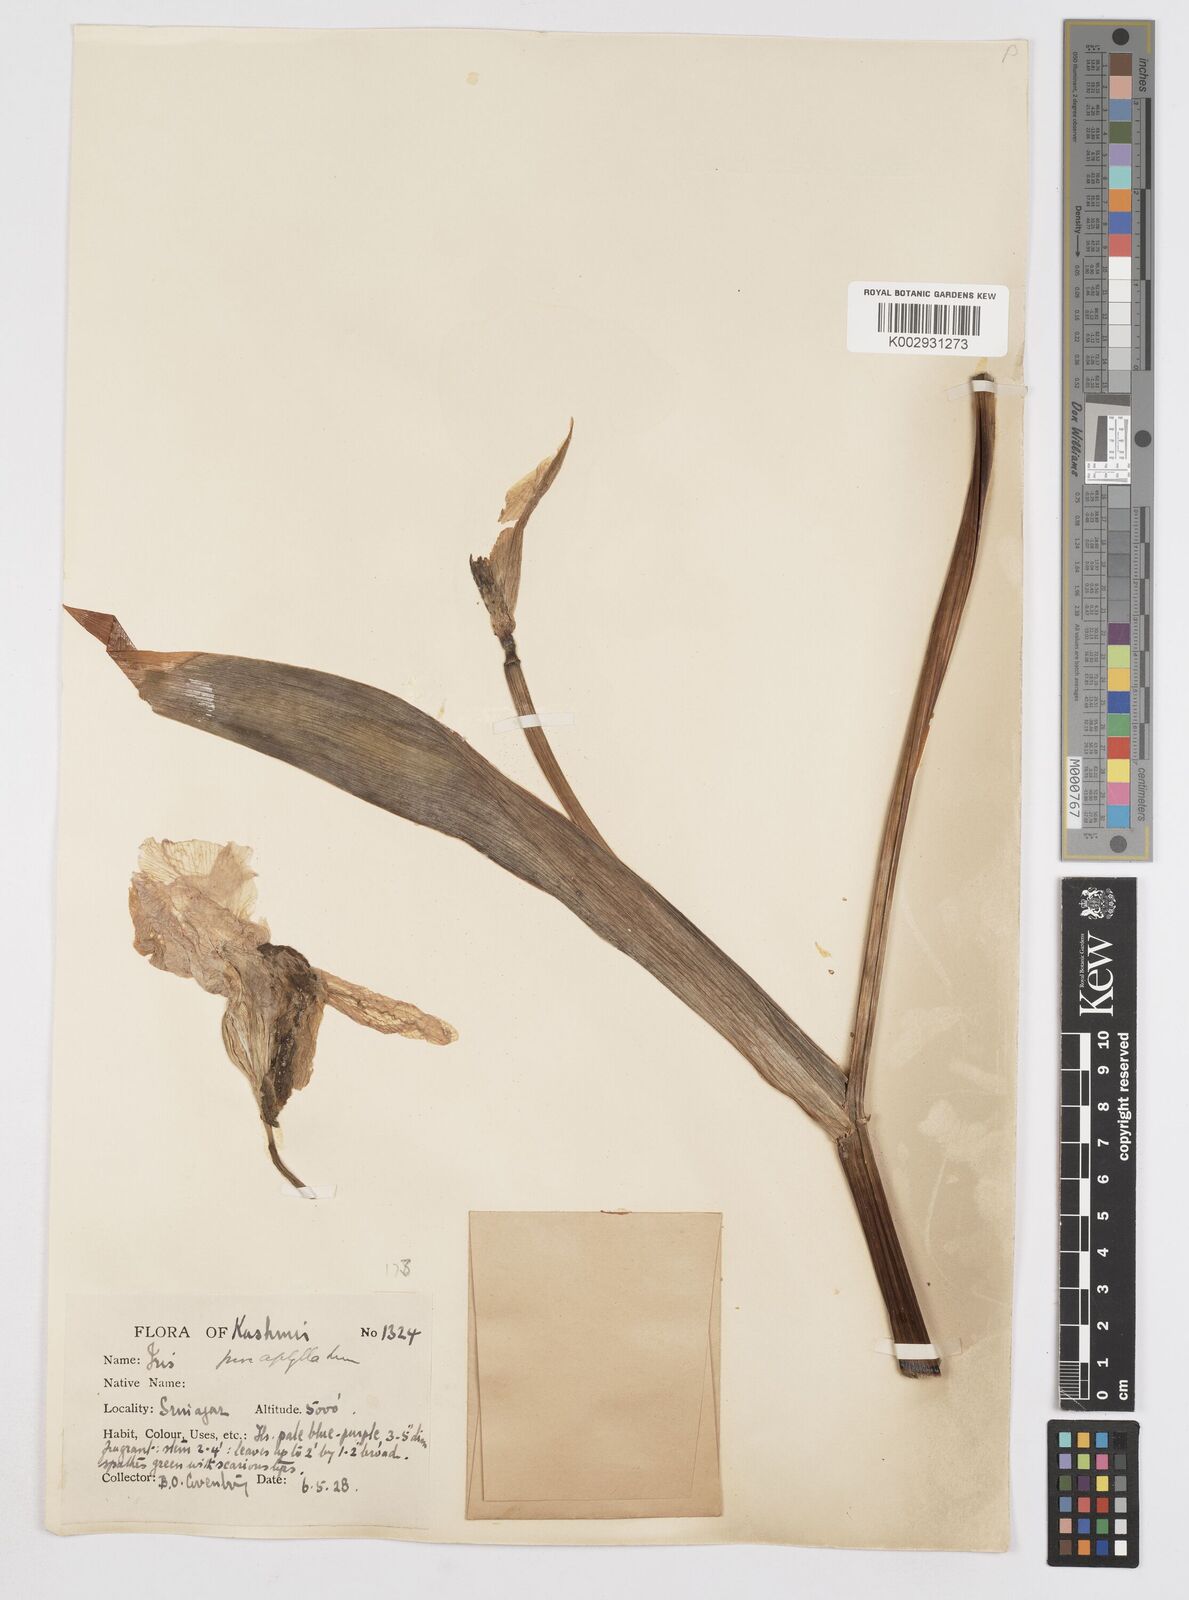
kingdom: Plantae
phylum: Tracheophyta
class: Liliopsida
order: Asparagales
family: Iridaceae
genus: Iris
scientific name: Iris kashmiriana
